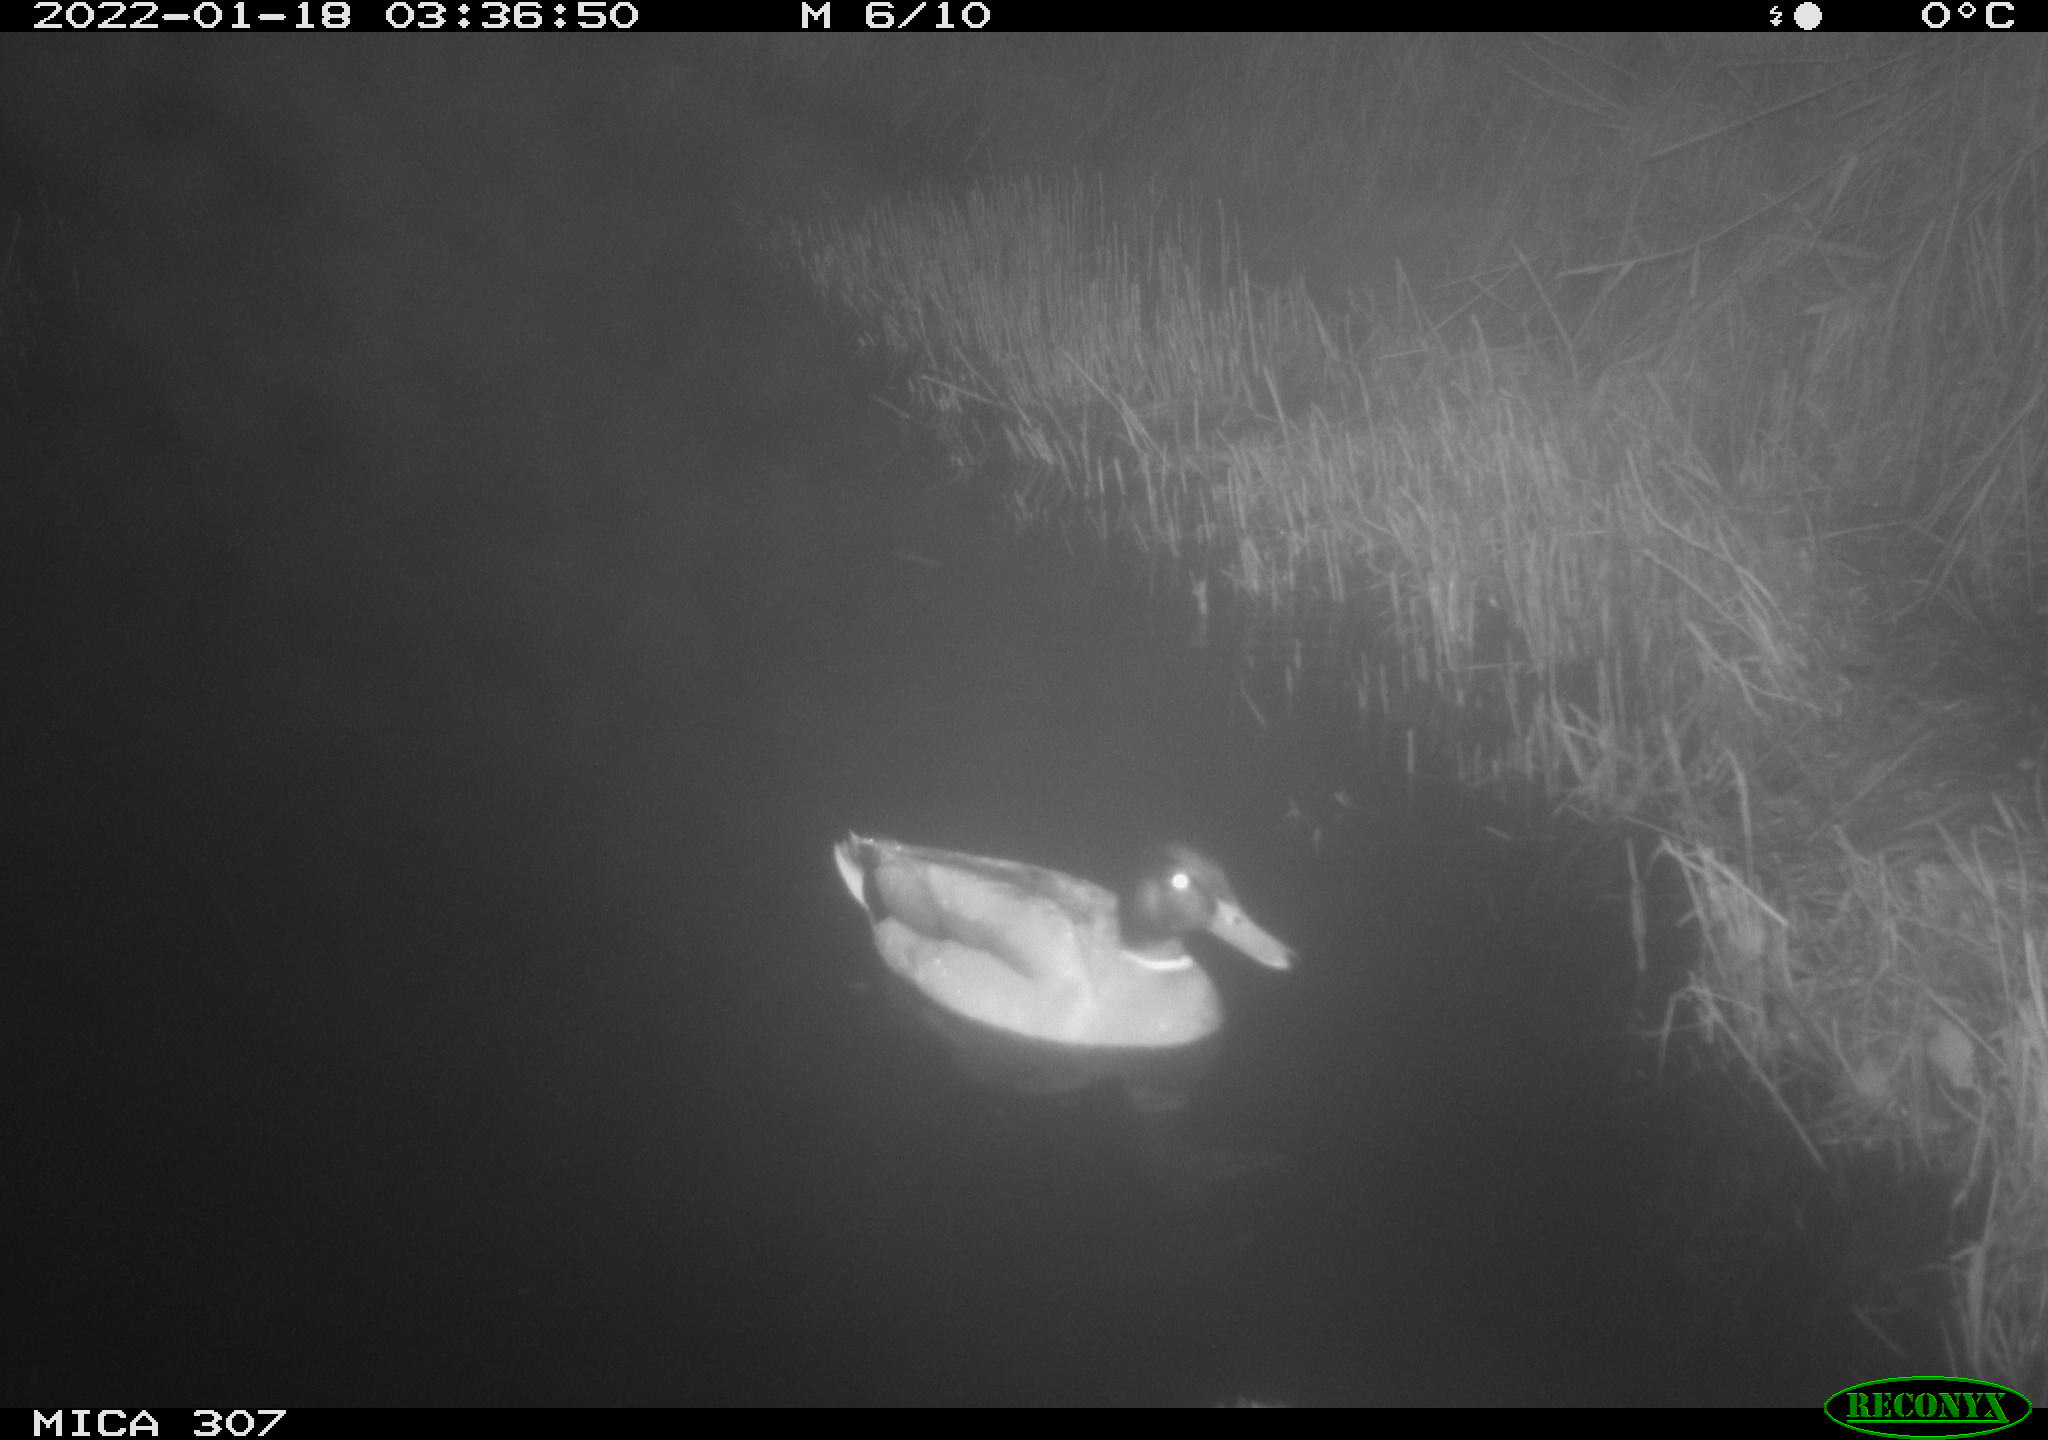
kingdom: Animalia
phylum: Chordata
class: Aves
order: Anseriformes
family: Anatidae
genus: Anas
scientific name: Anas platyrhynchos
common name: Mallard
